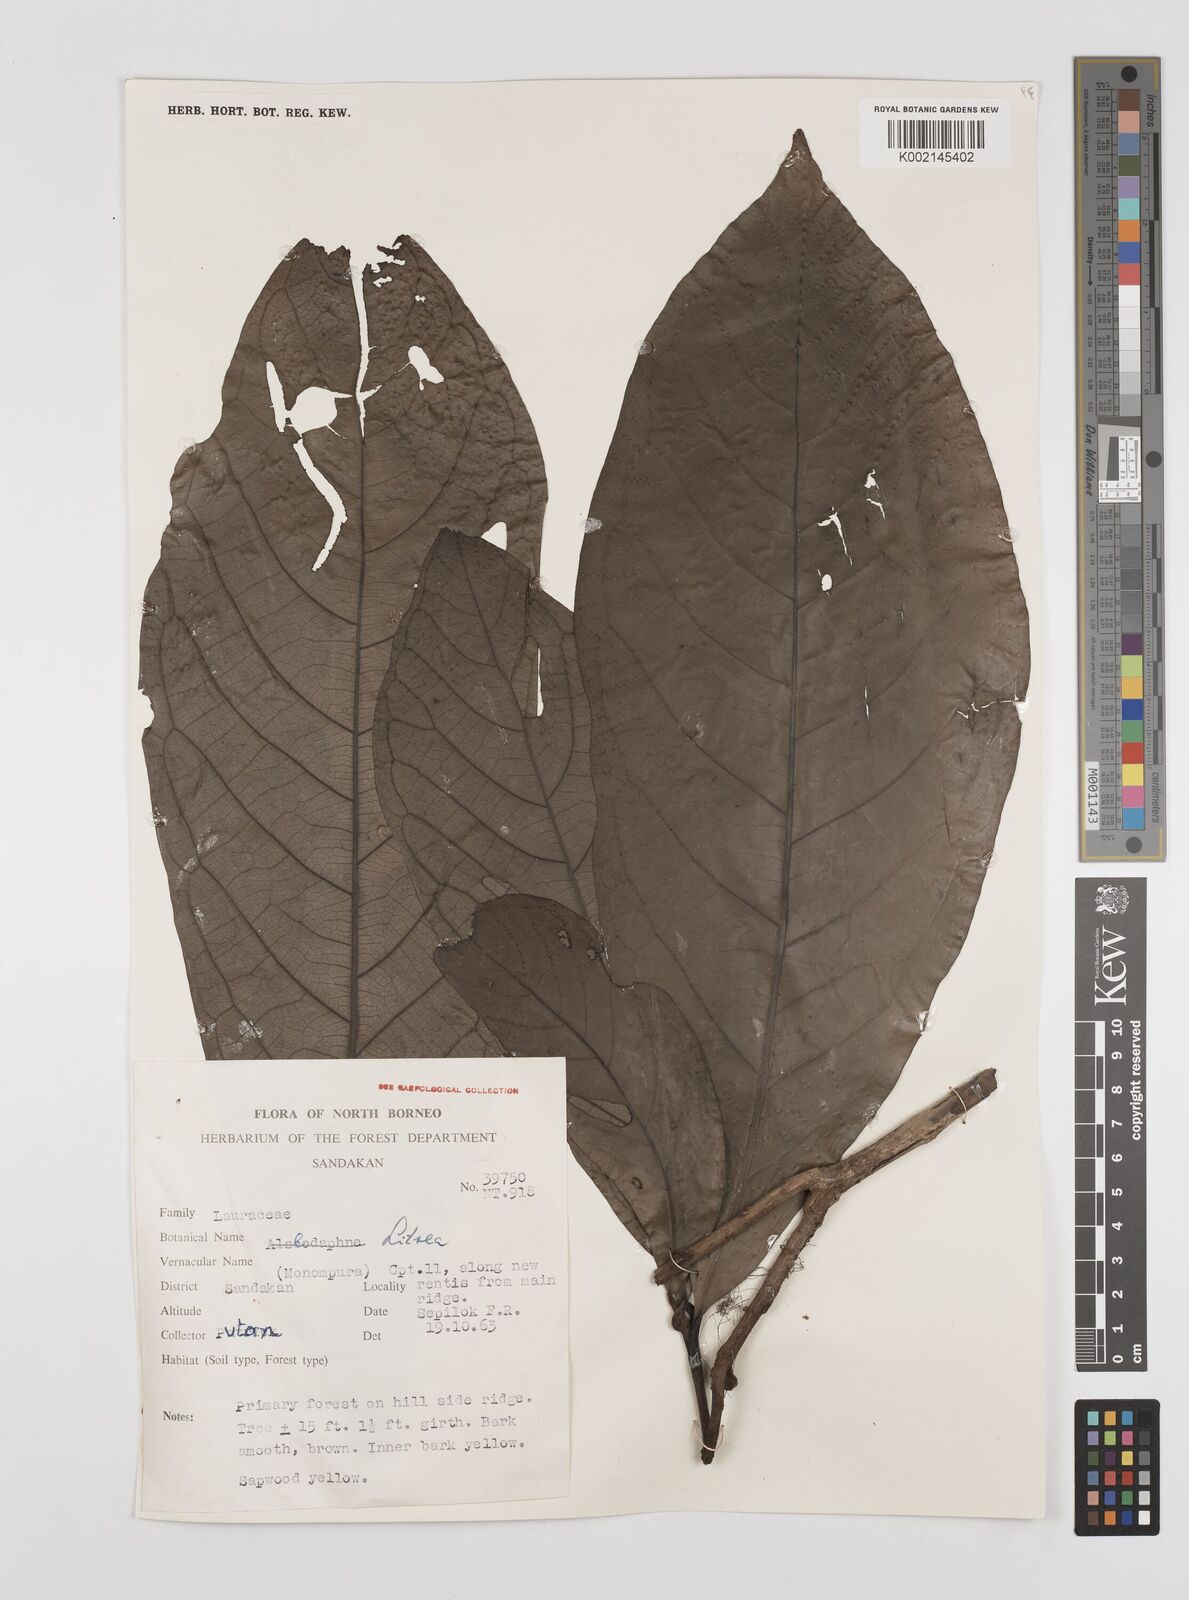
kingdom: Plantae
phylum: Tracheophyta
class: Magnoliopsida
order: Laurales
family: Lauraceae
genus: Litsea
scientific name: Litsea
